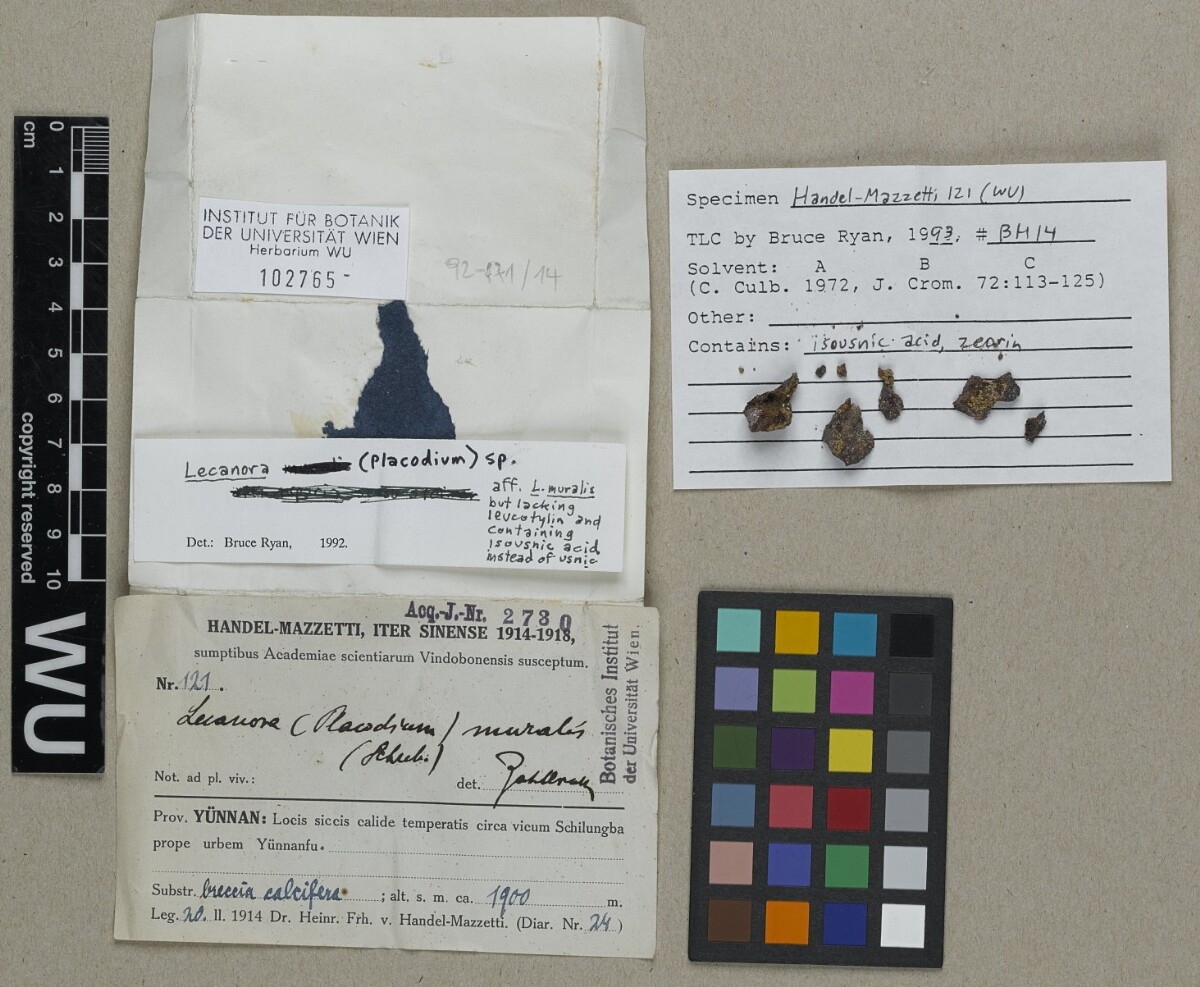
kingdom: Fungi
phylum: Ascomycota
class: Lecanoromycetes
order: Lecanorales
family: Lecanoraceae
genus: Protoparmeliopsis
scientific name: Protoparmeliopsis muralis
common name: Stonewall rim lichen
